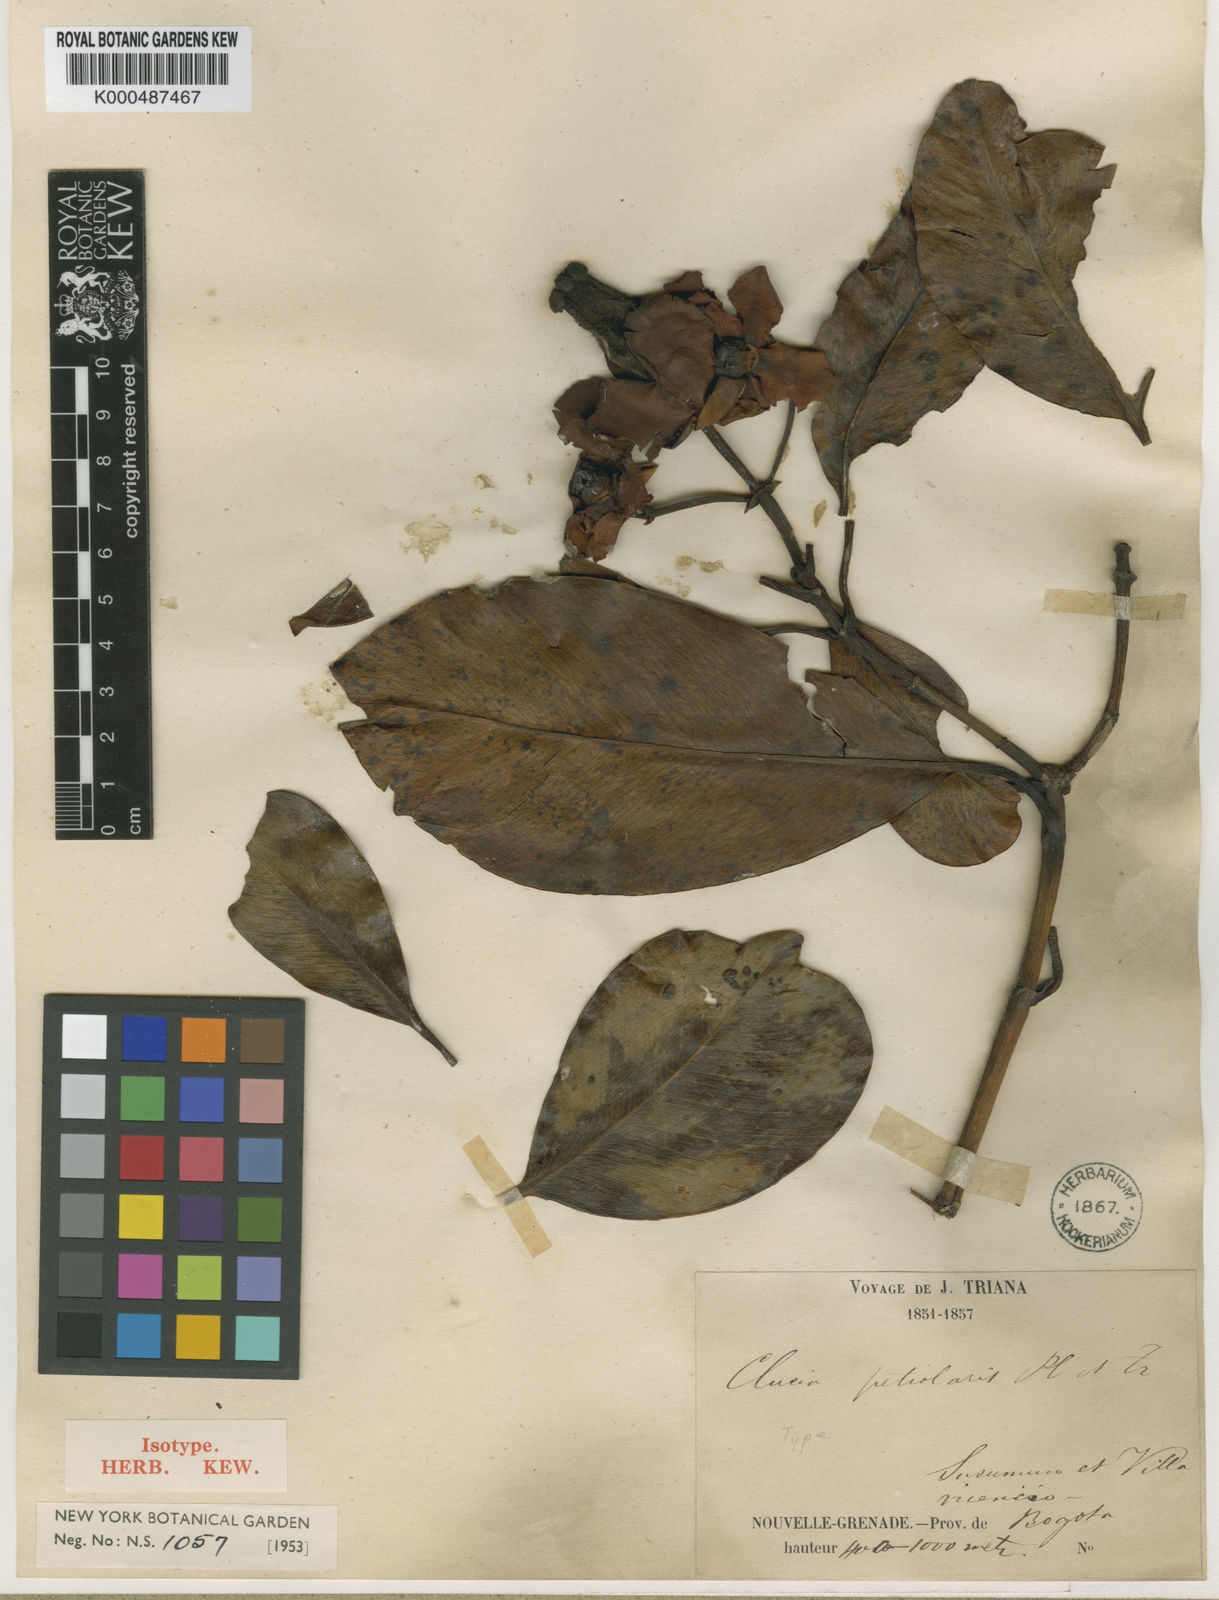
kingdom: Plantae
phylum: Tracheophyta
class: Magnoliopsida
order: Malpighiales
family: Clusiaceae
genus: Clusia
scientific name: Clusia petiolaris
